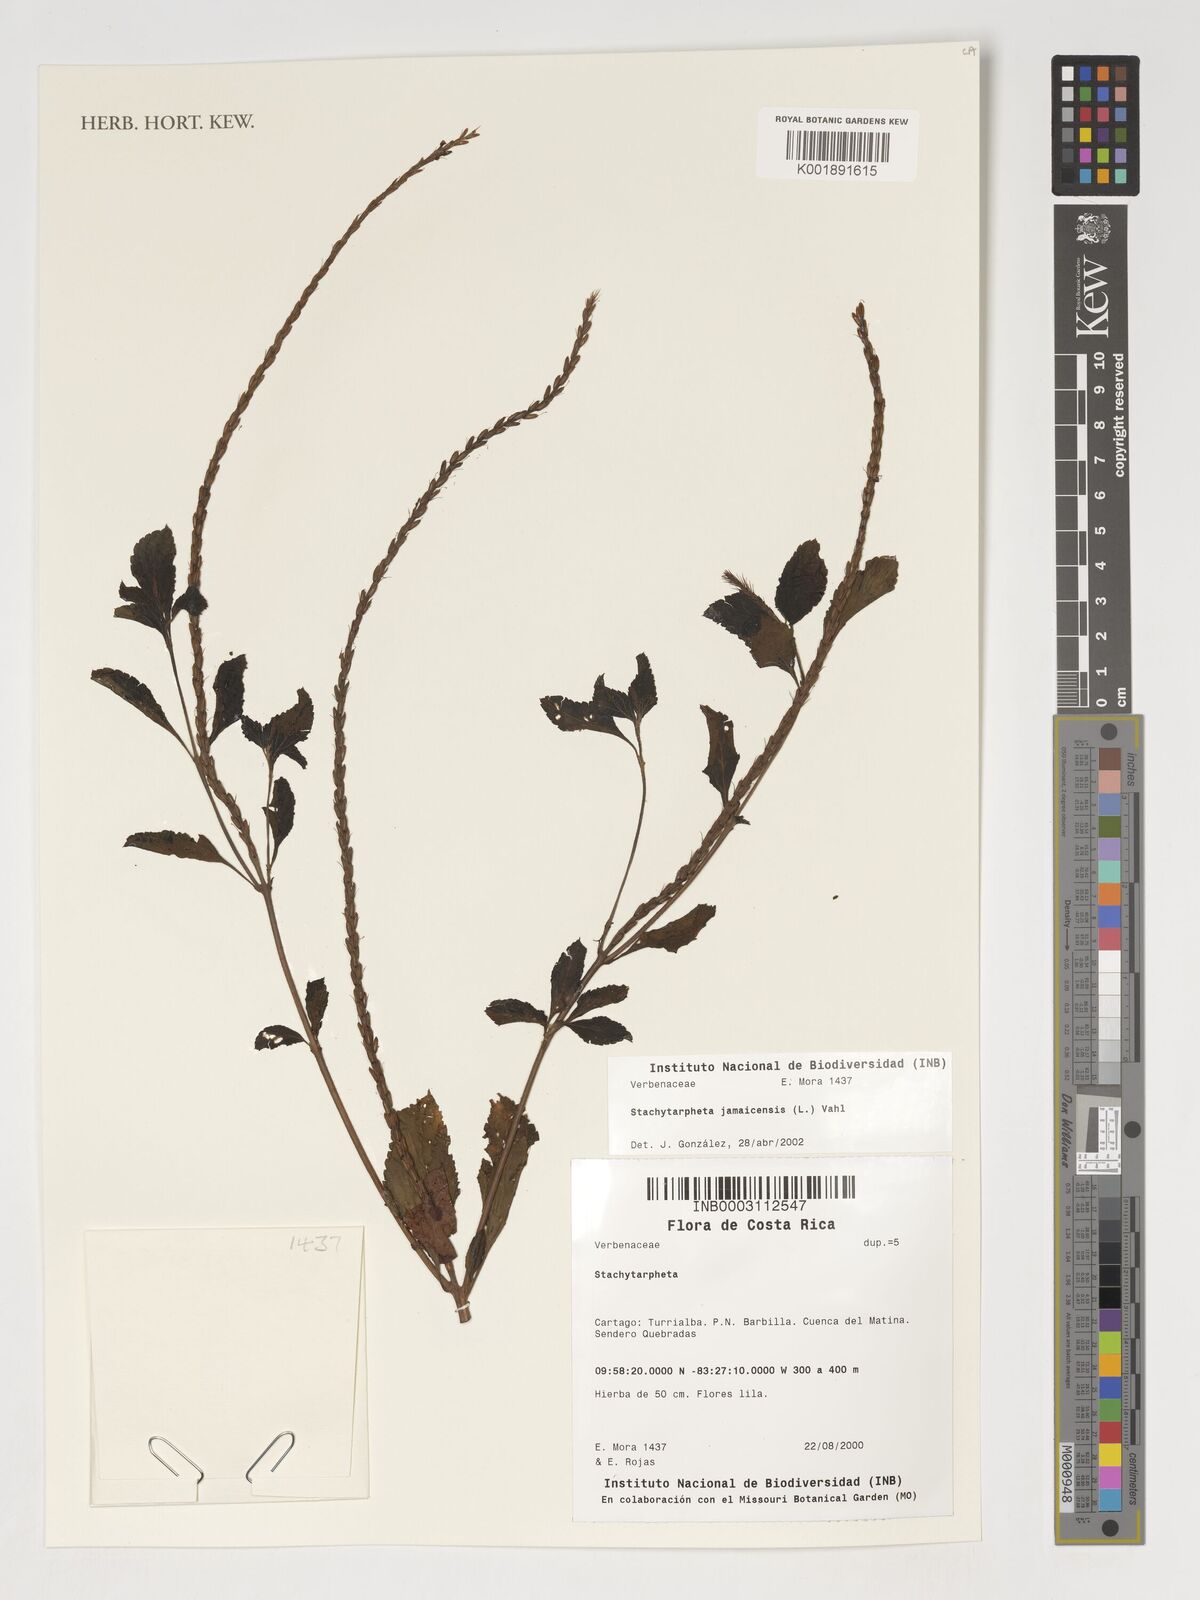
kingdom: Plantae
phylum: Tracheophyta
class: Magnoliopsida
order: Lamiales
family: Verbenaceae
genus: Stachytarpheta
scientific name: Stachytarpheta jamaicensis
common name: Light-blue snakeweed
